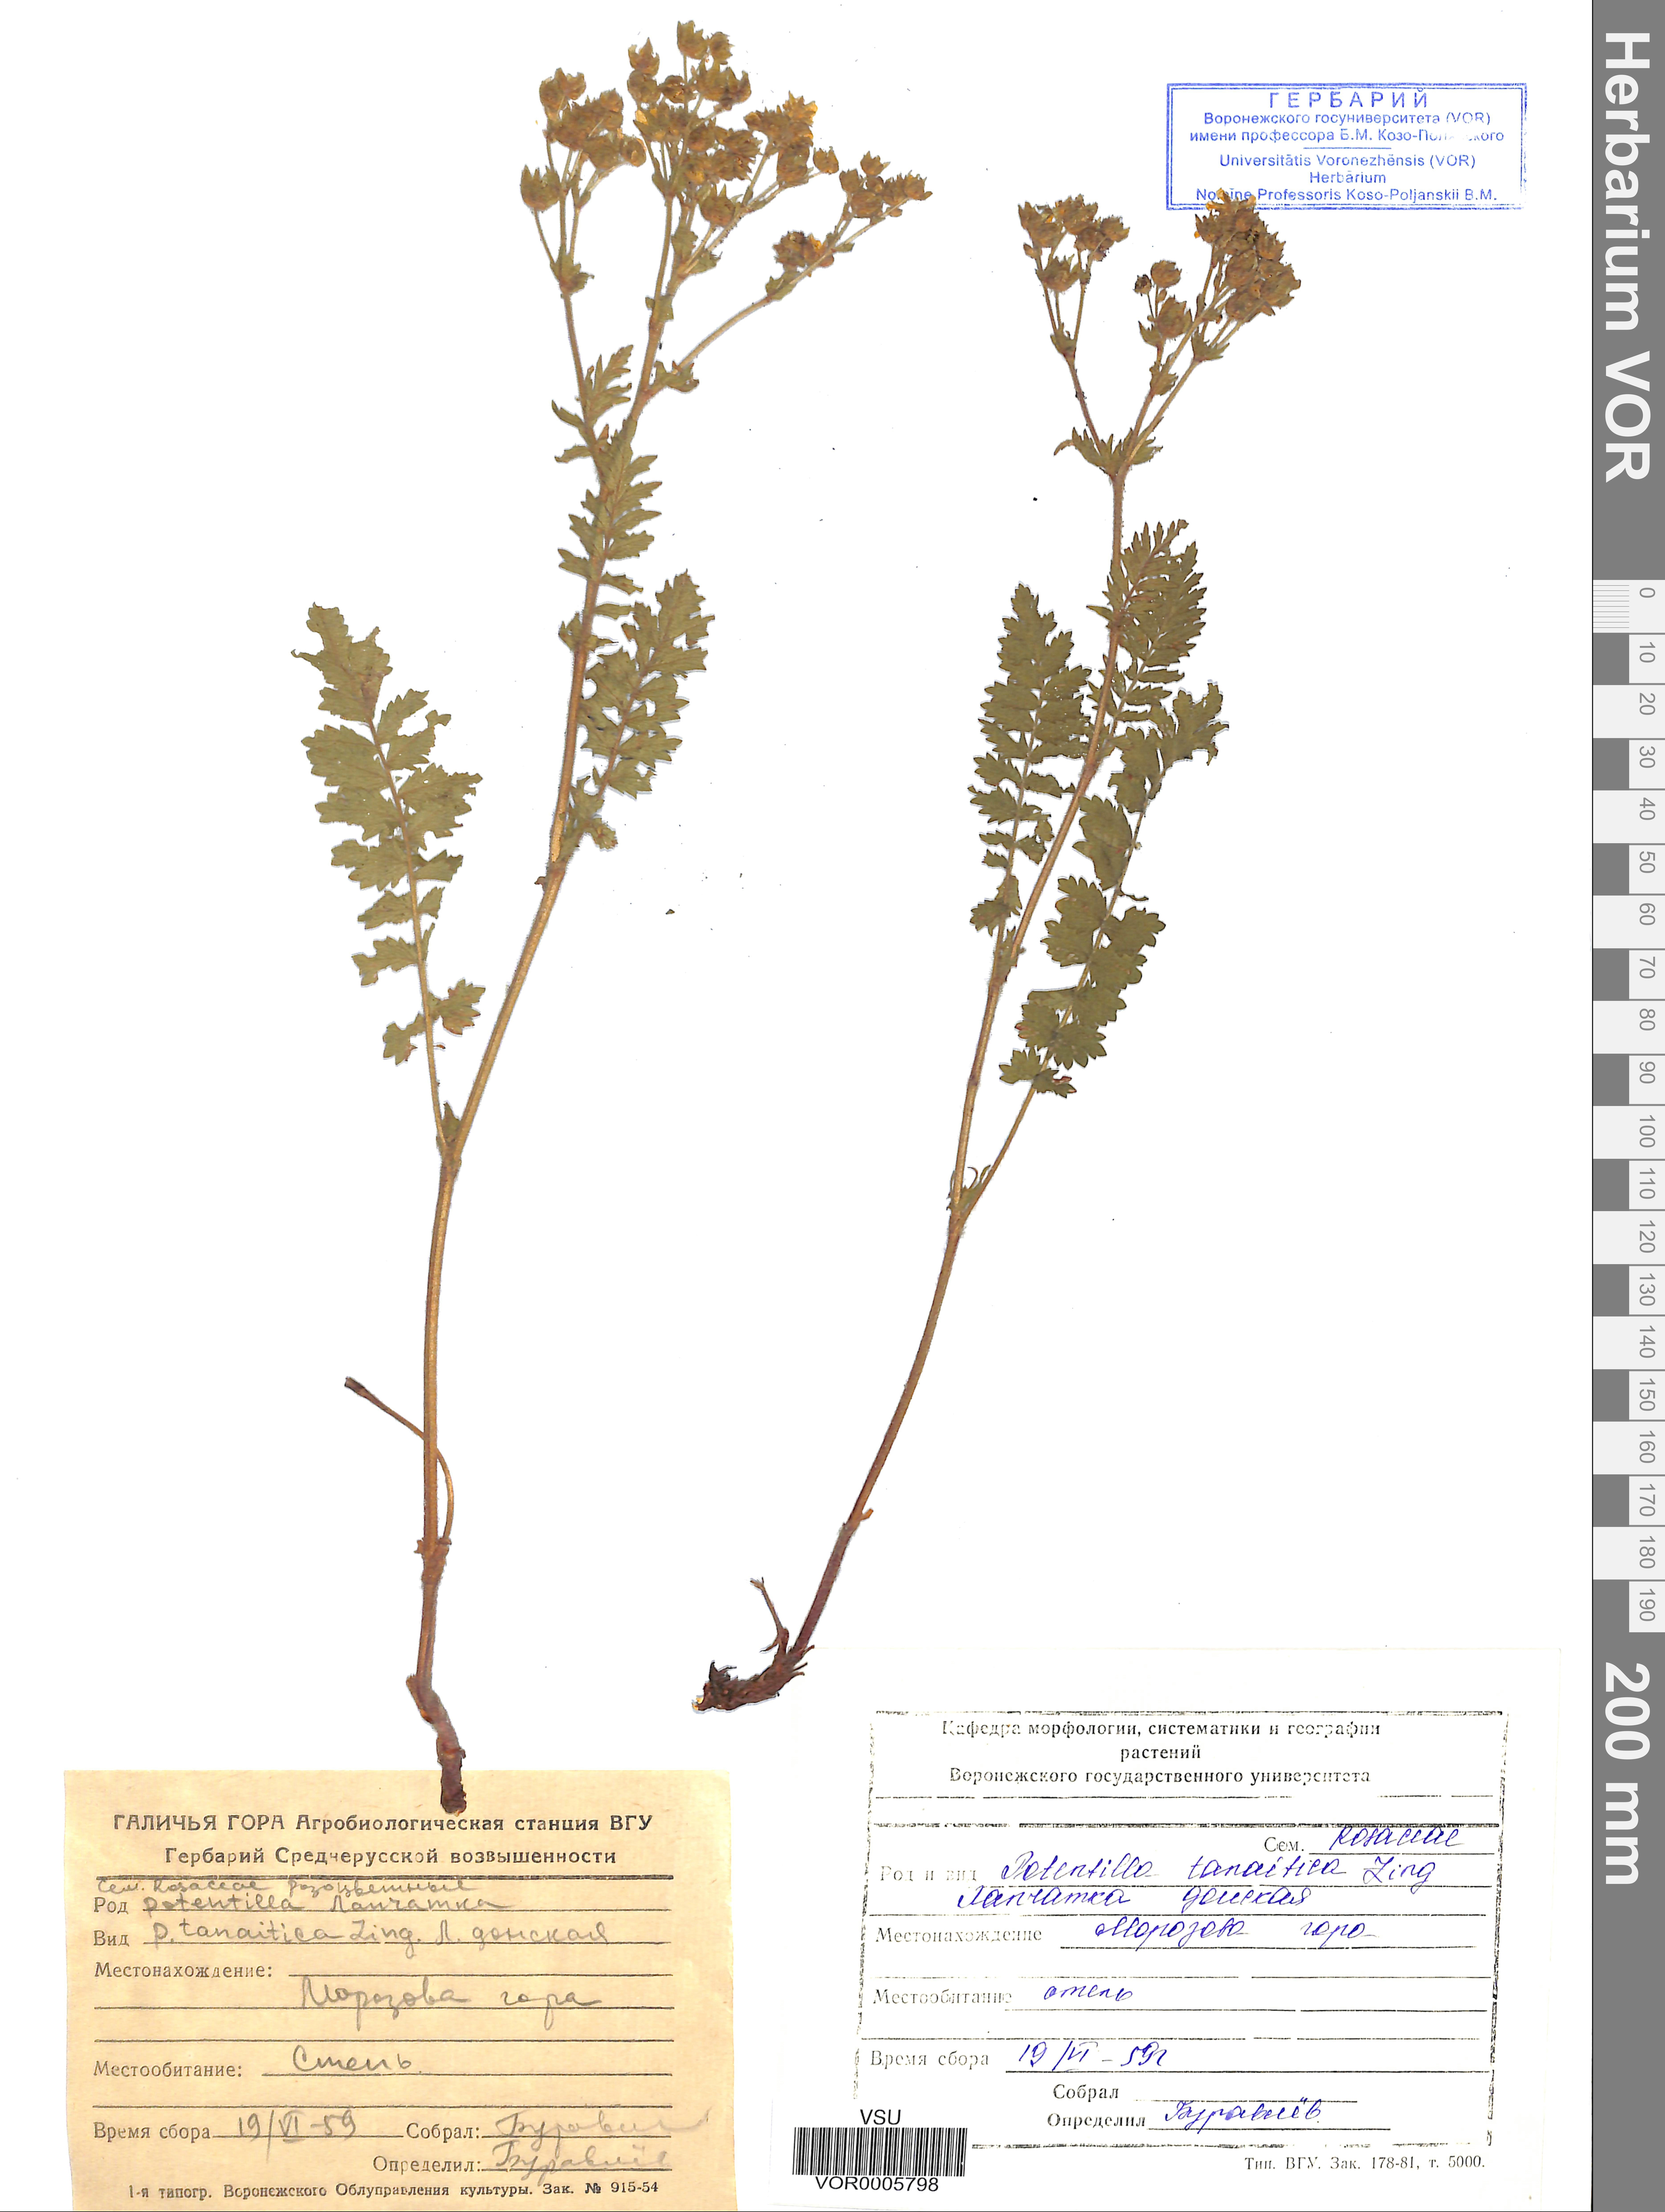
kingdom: Plantae
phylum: Tracheophyta
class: Magnoliopsida
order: Rosales
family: Rosaceae
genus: Potentilla
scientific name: Potentilla tanaitica
